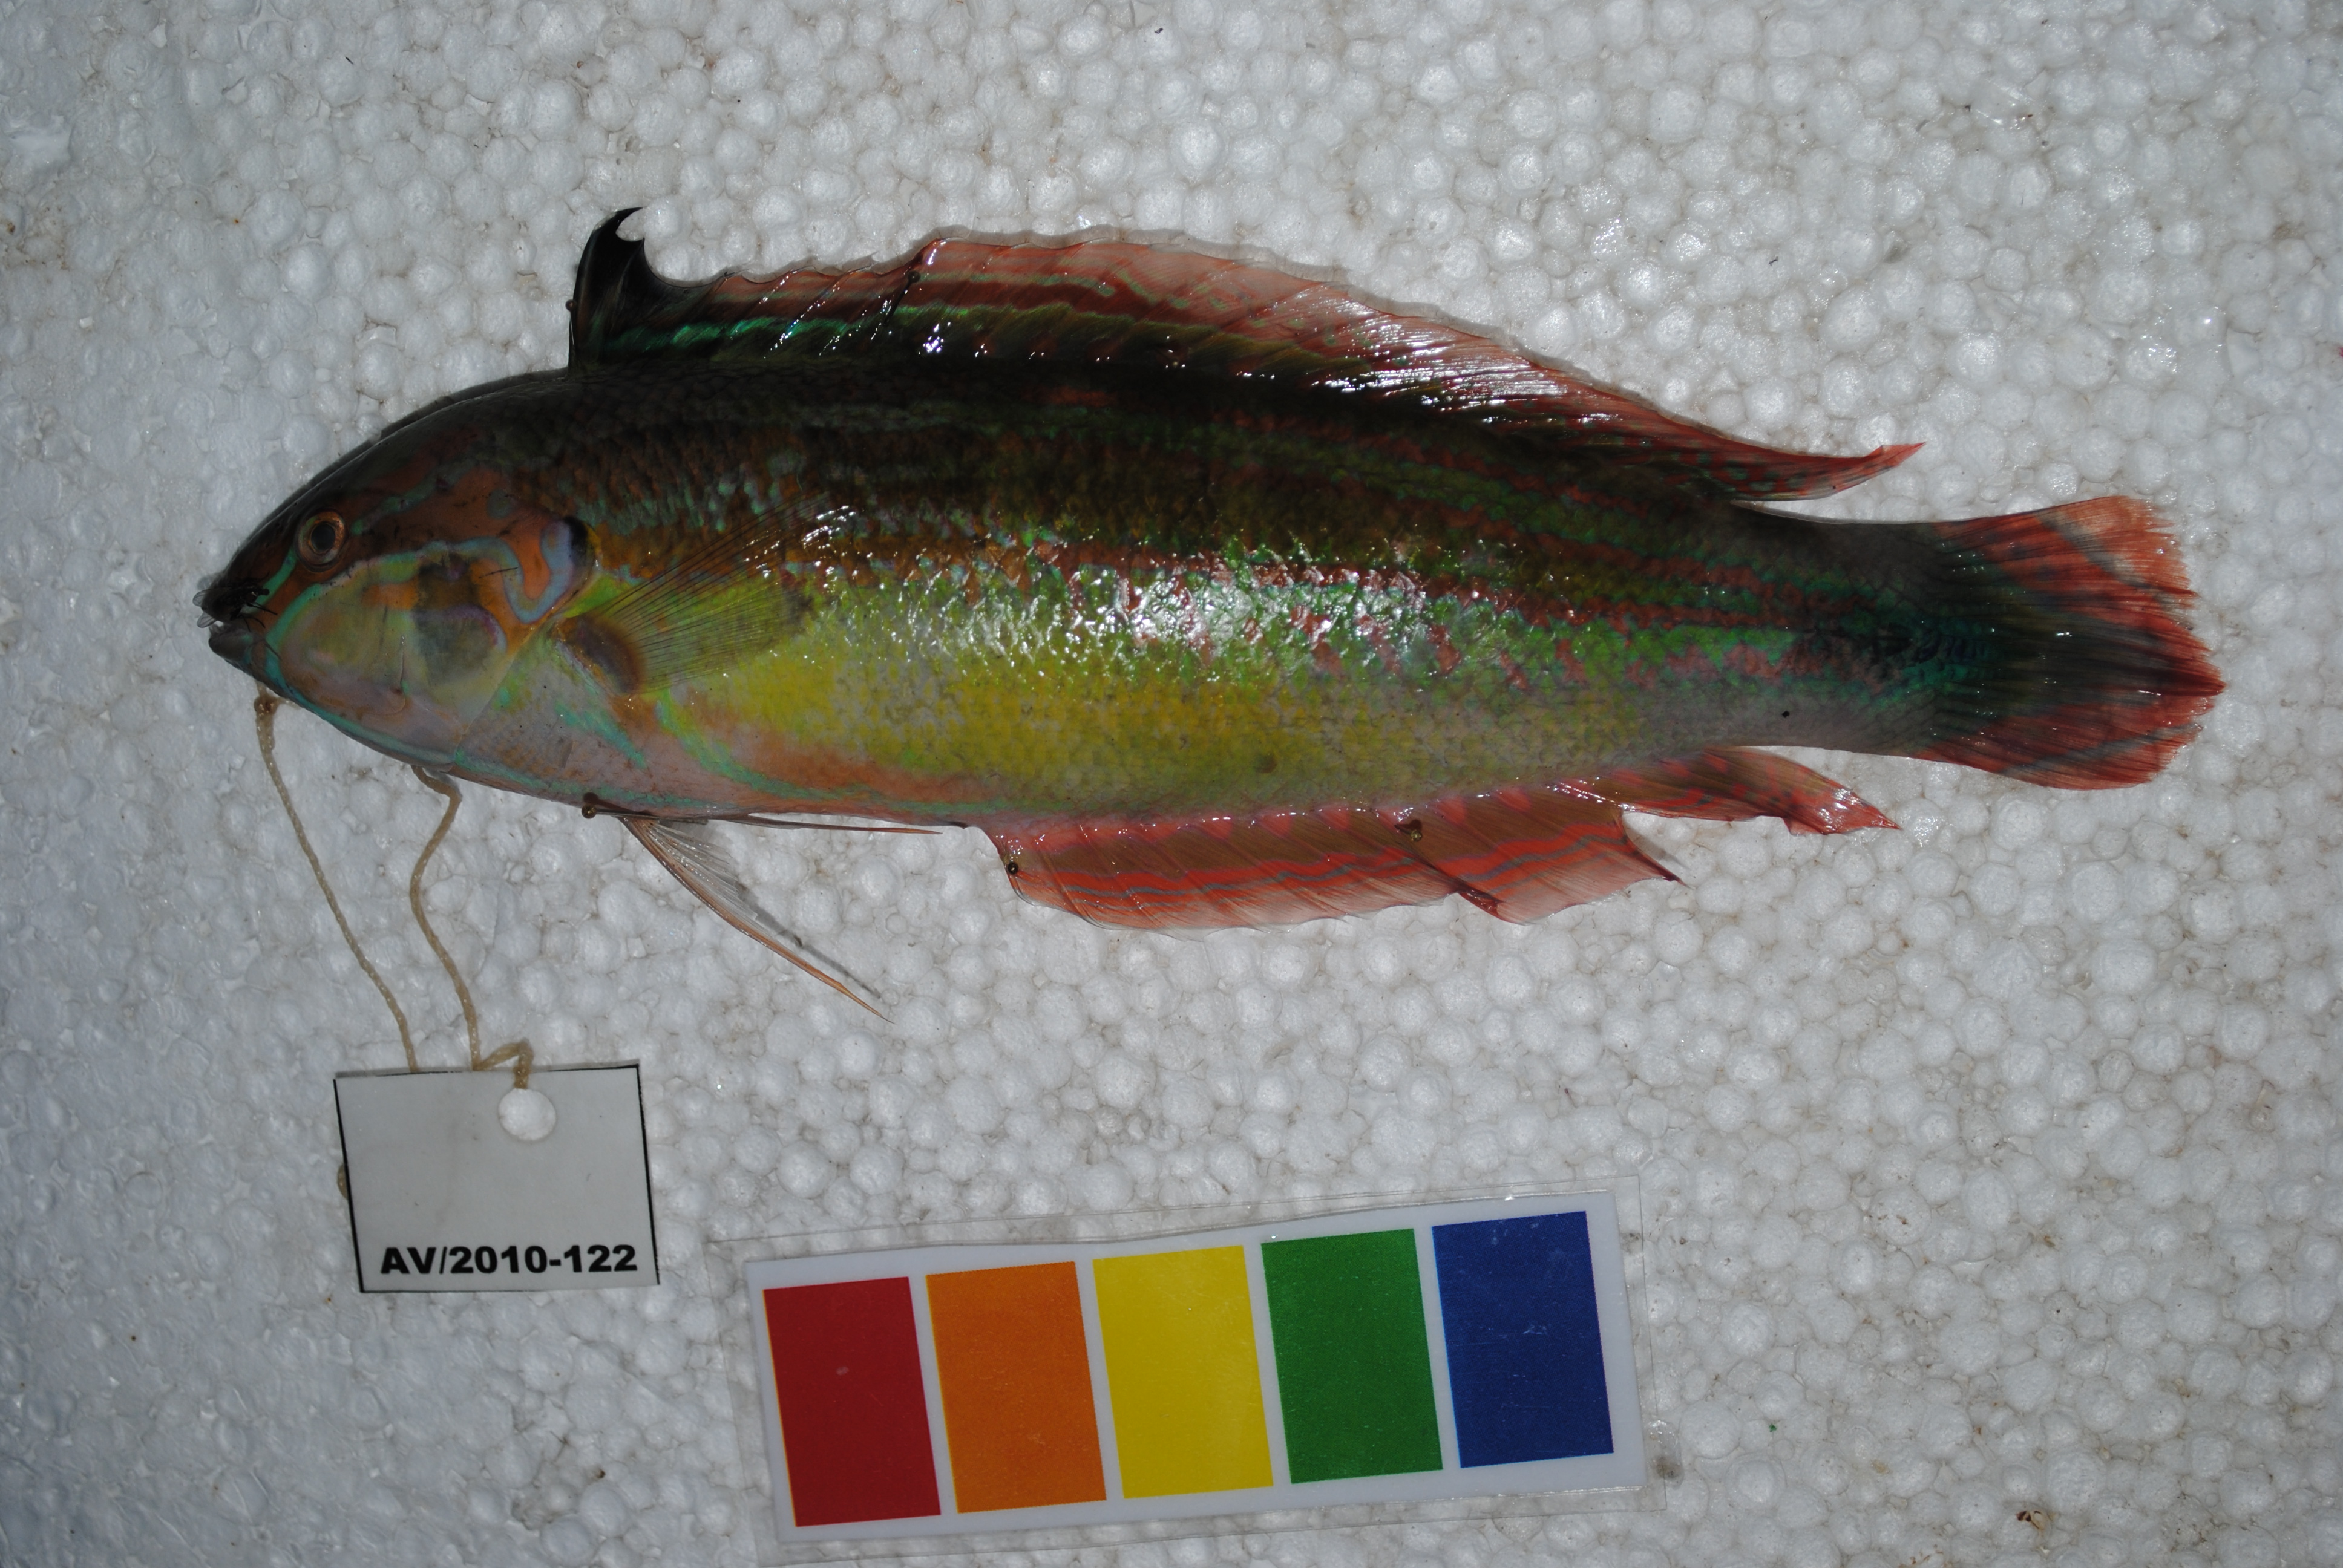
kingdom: Animalia
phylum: Chordata
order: Perciformes
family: Labridae
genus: Coris
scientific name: Coris caudimacula
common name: Spottail coris
